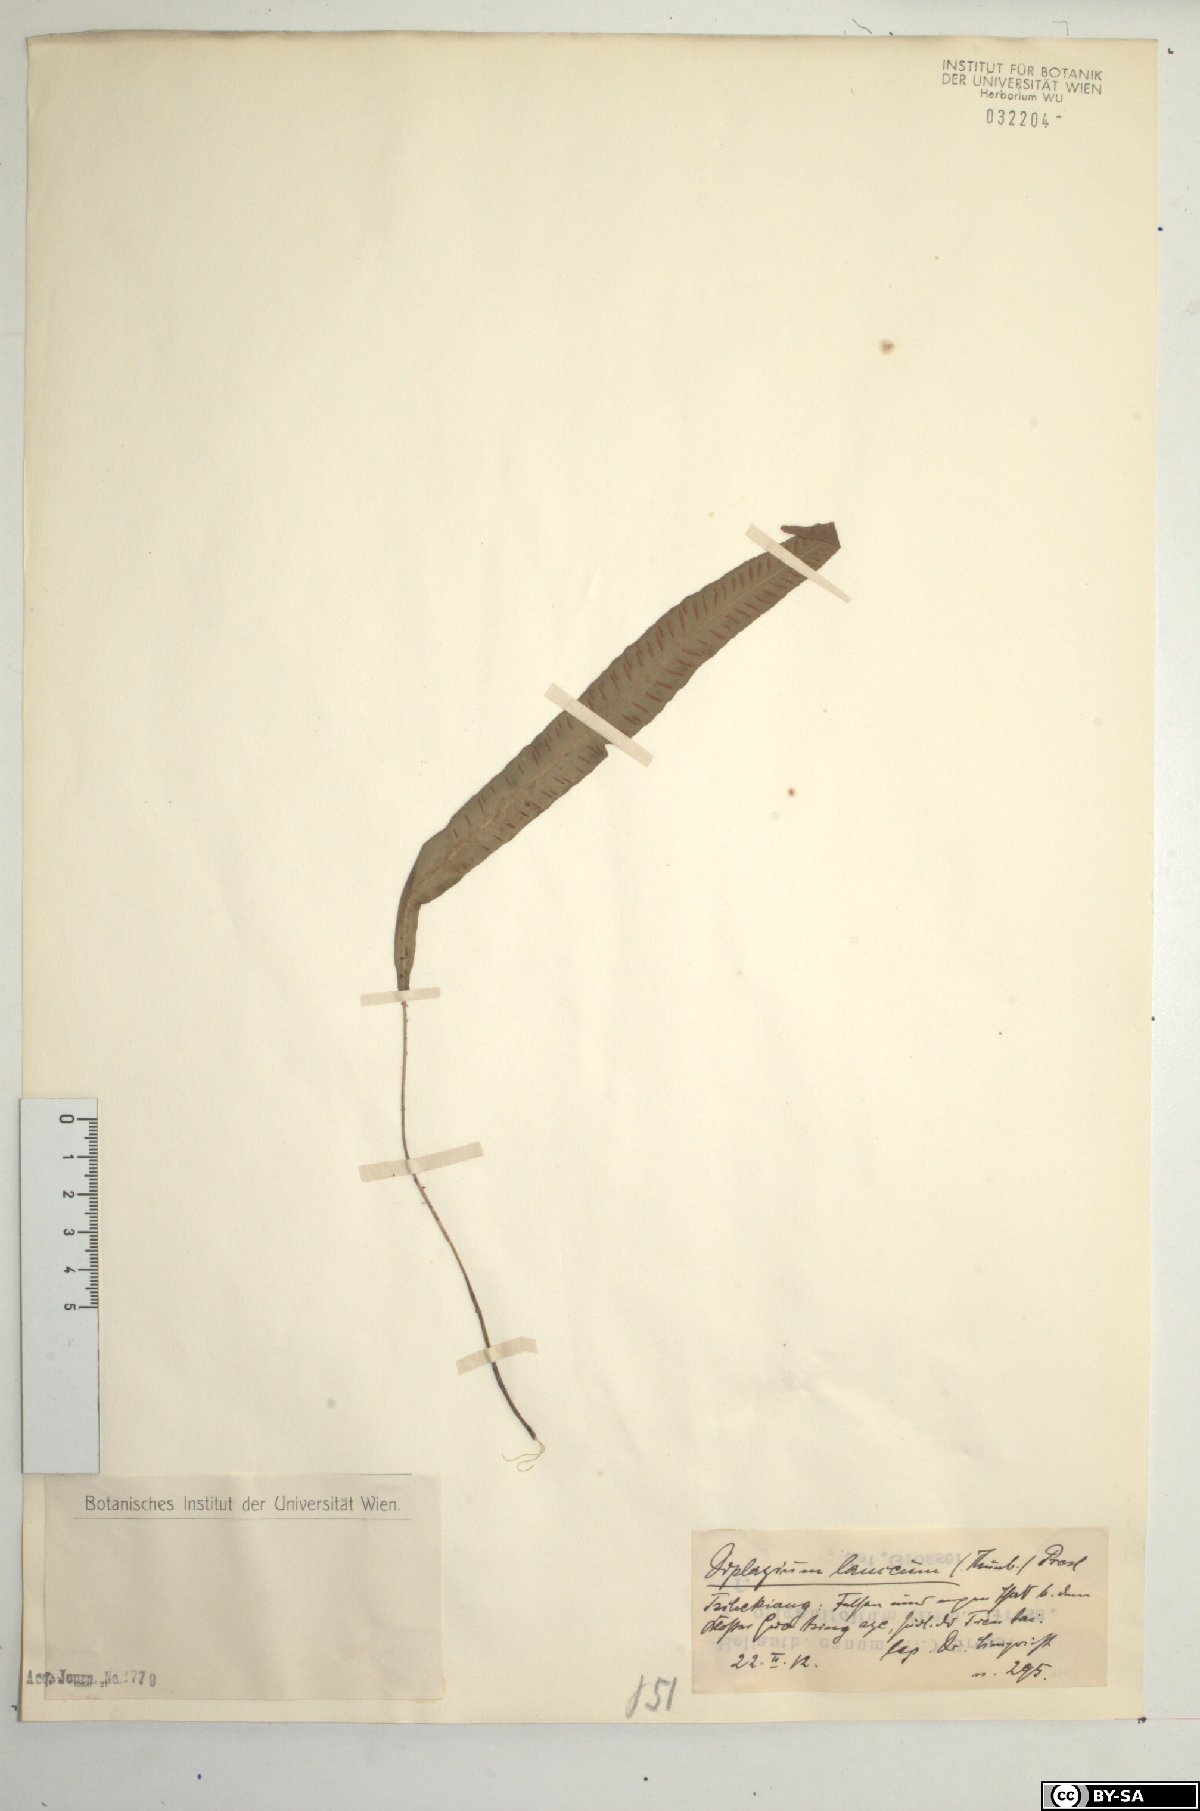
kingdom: Plantae
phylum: Tracheophyta
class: Polypodiopsida
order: Polypodiales
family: Athyriaceae
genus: Deparia
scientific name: Deparia lancea
